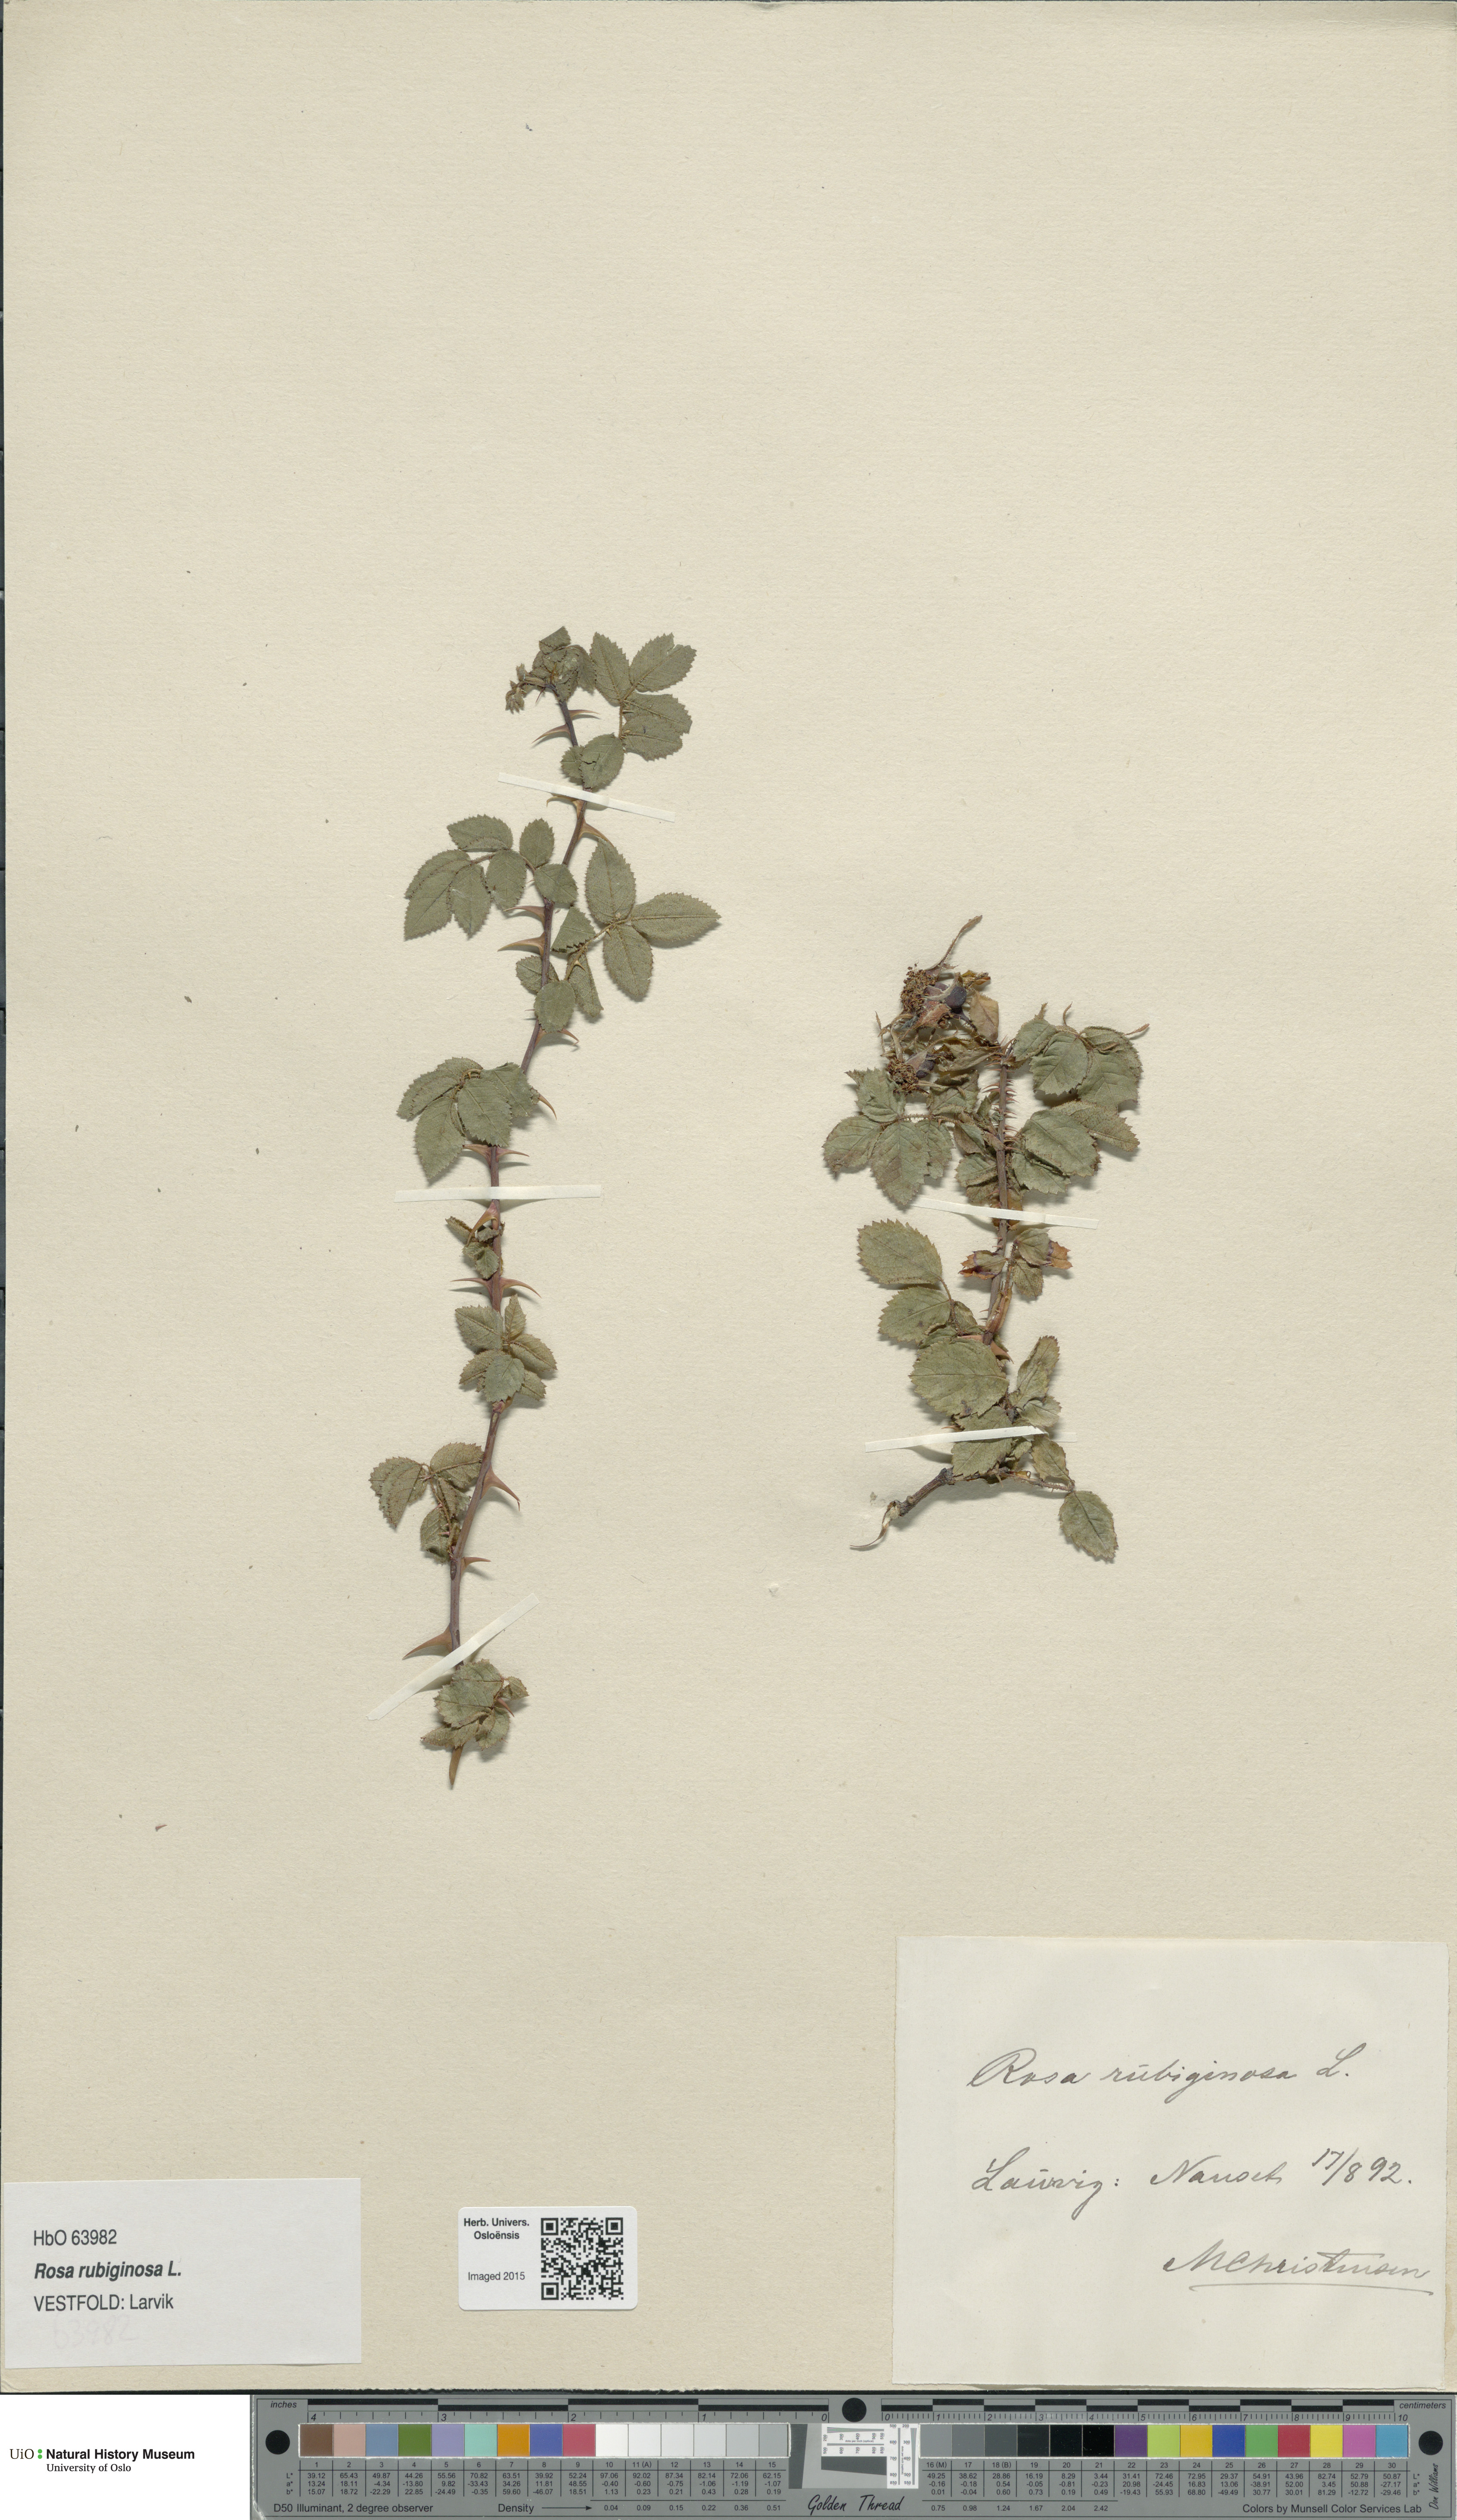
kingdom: Plantae
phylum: Tracheophyta
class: Magnoliopsida
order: Rosales
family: Rosaceae
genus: Rosa
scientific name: Rosa rubiginosa
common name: Sweet-briar
